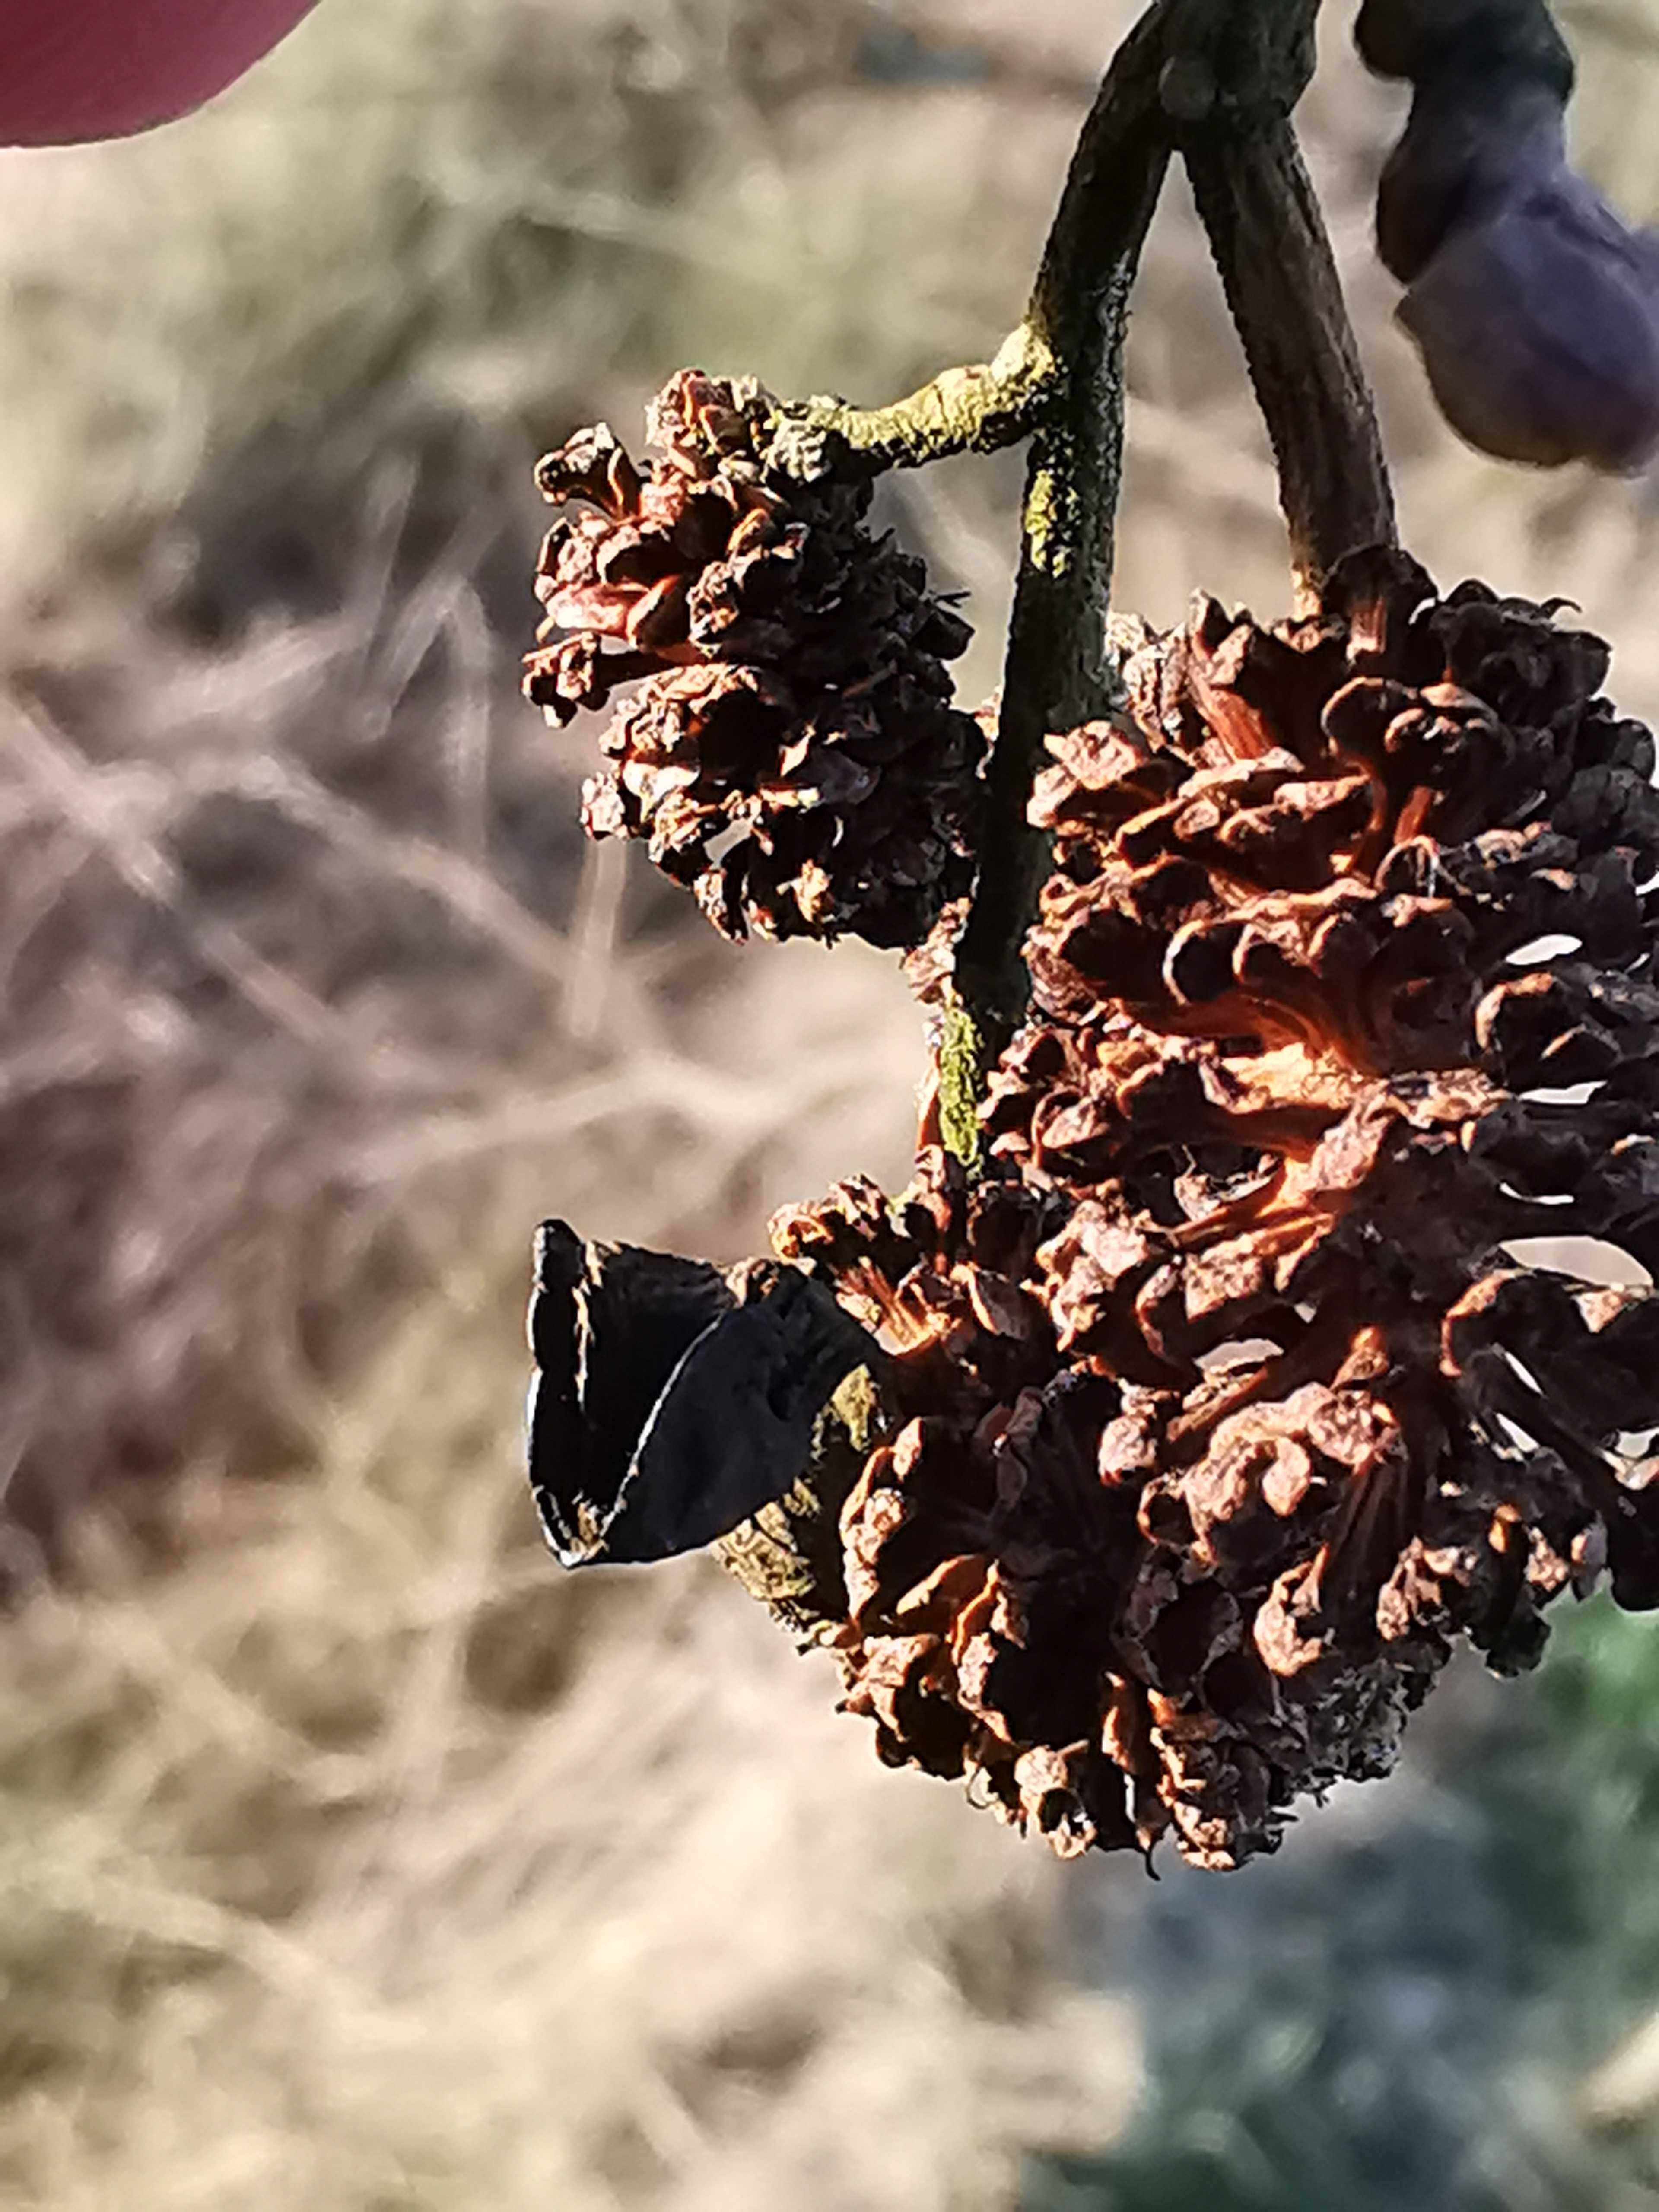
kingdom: Fungi
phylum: Ascomycota
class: Taphrinomycetes
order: Taphrinales
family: Taphrinaceae
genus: Taphrina
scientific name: Taphrina alni
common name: Alder tongue
